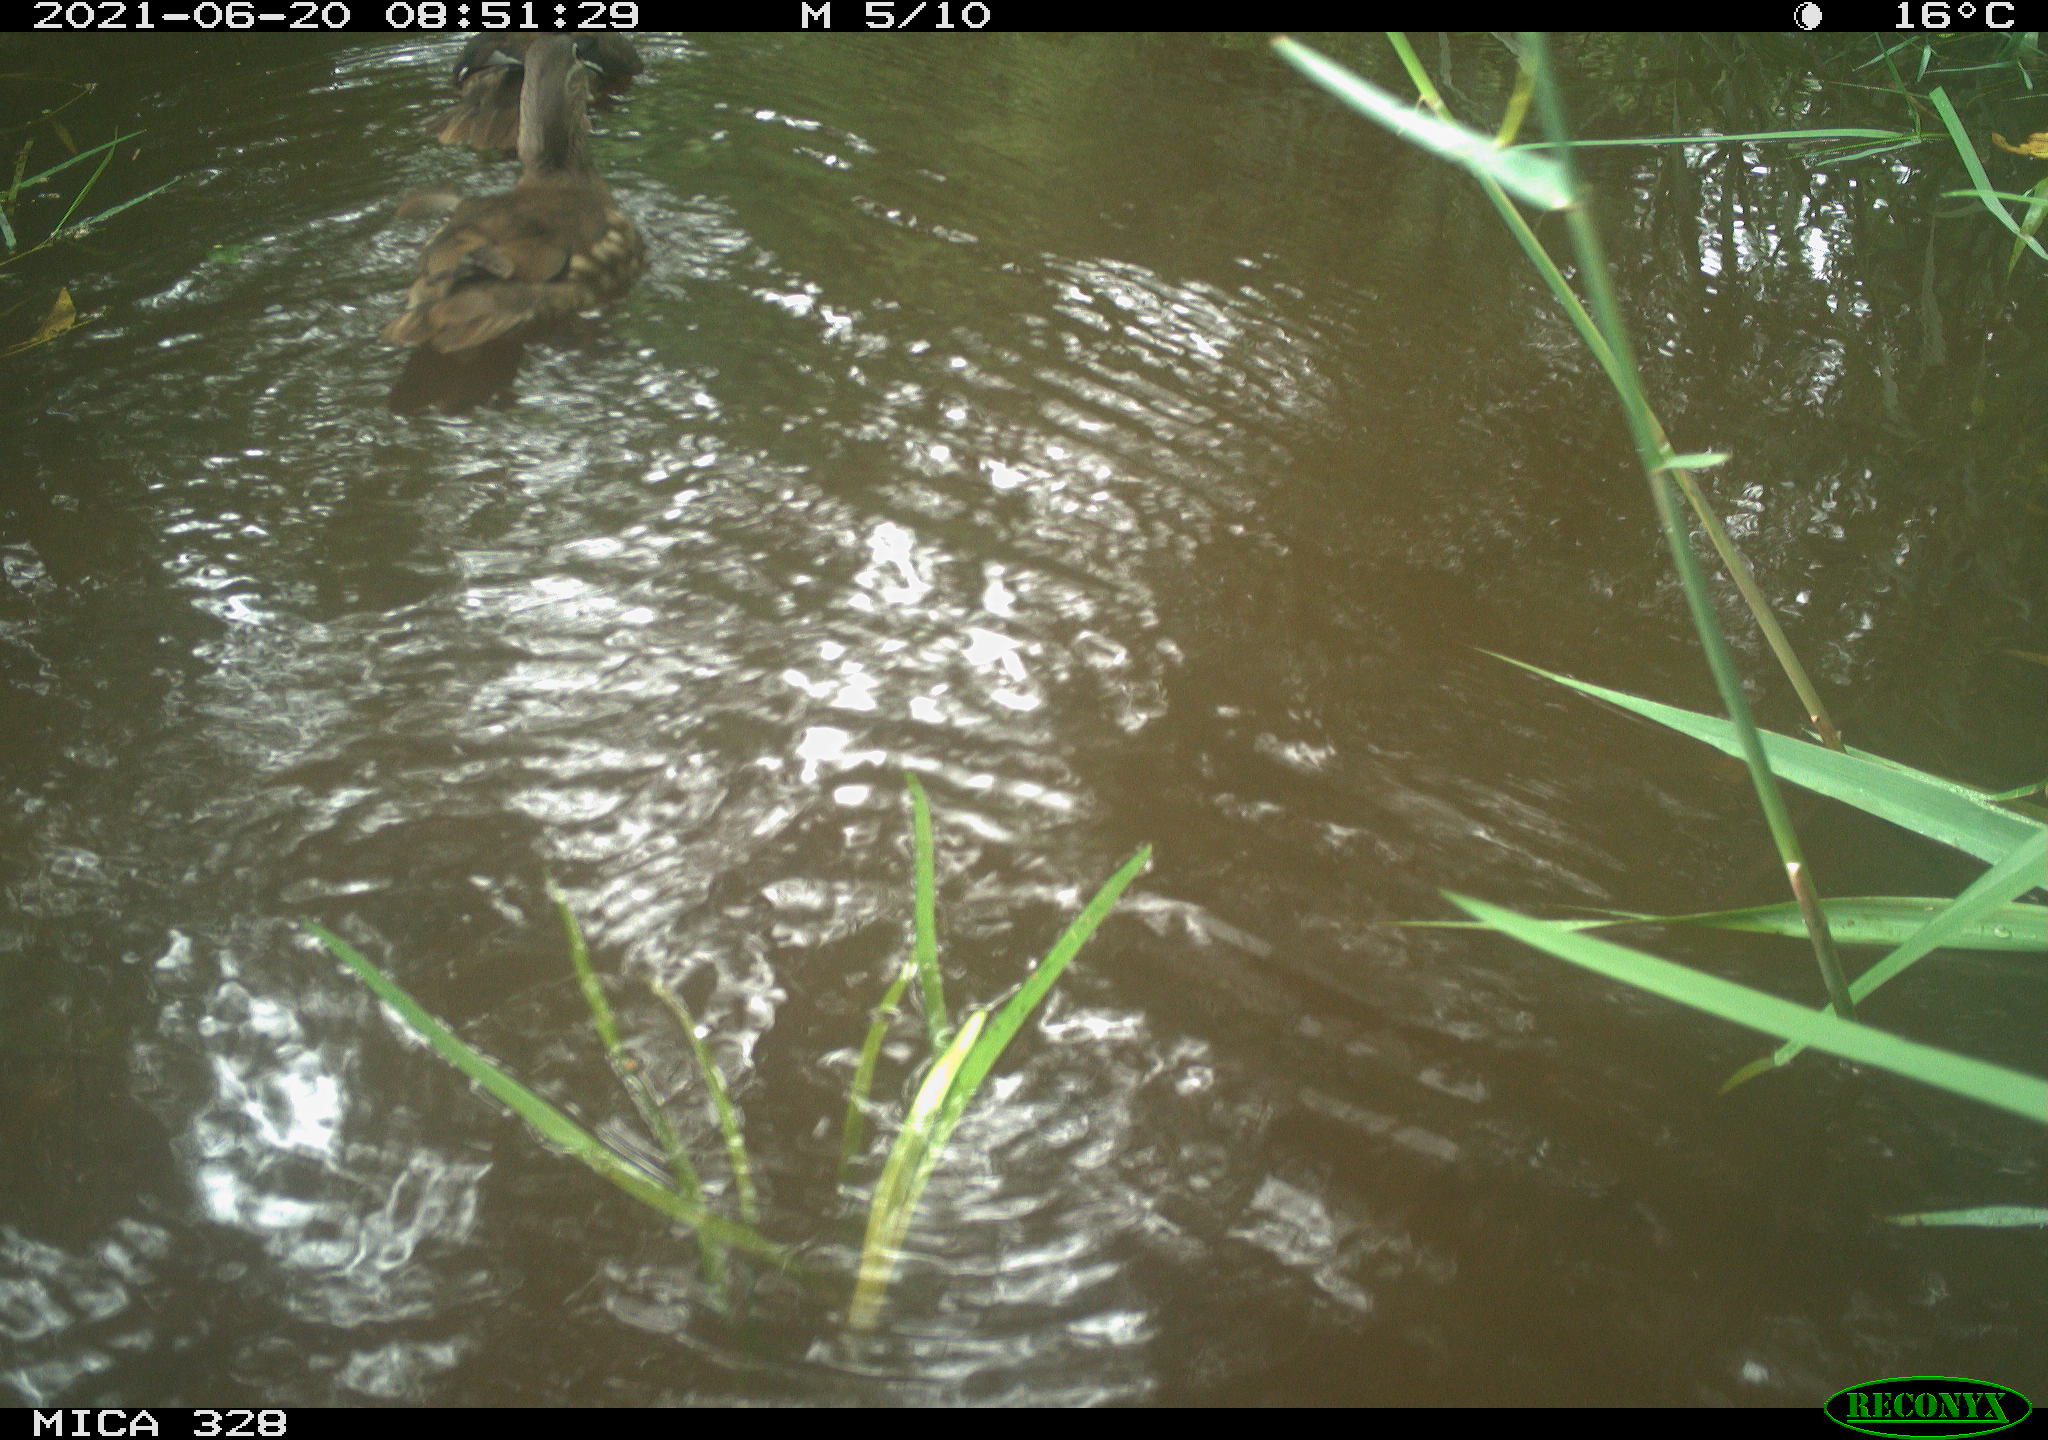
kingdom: Animalia
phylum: Chordata
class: Aves
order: Anseriformes
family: Anatidae
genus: Aix
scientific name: Aix galericulata
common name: Mandarin duck
